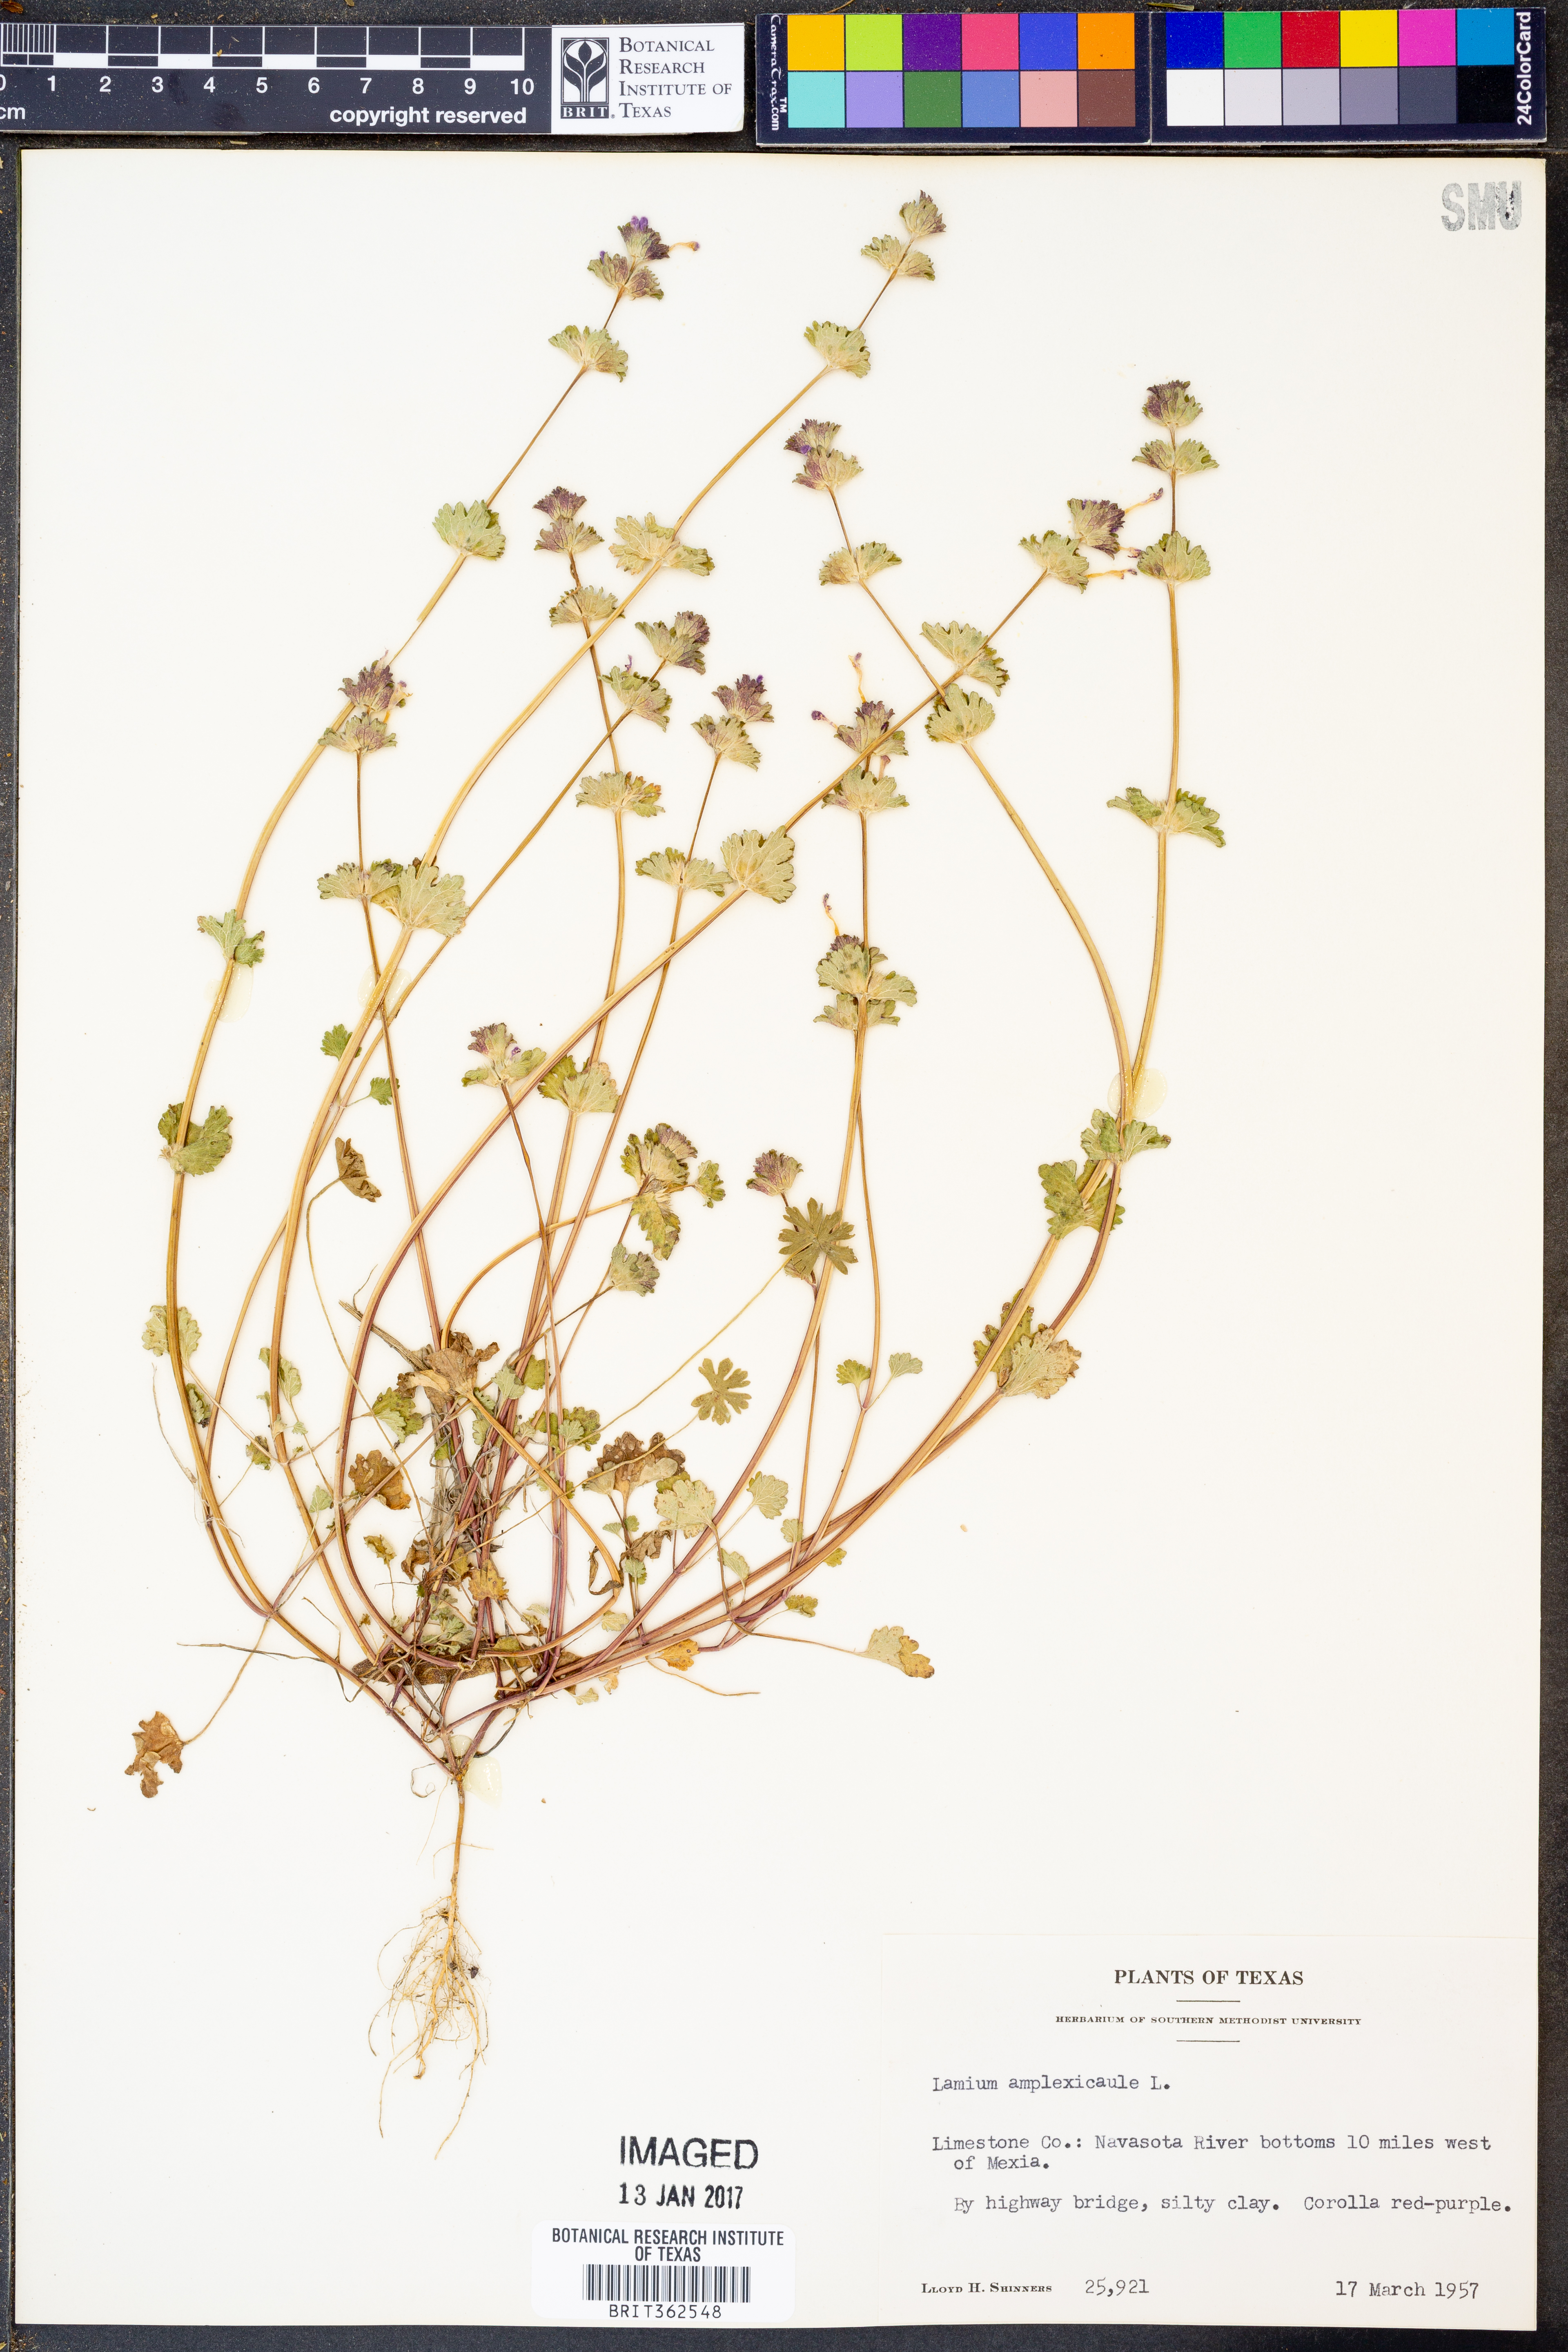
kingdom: Plantae
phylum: Tracheophyta
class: Magnoliopsida
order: Lamiales
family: Lamiaceae
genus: Lamium
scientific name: Lamium amplexicaule
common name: Henbit dead-nettle
